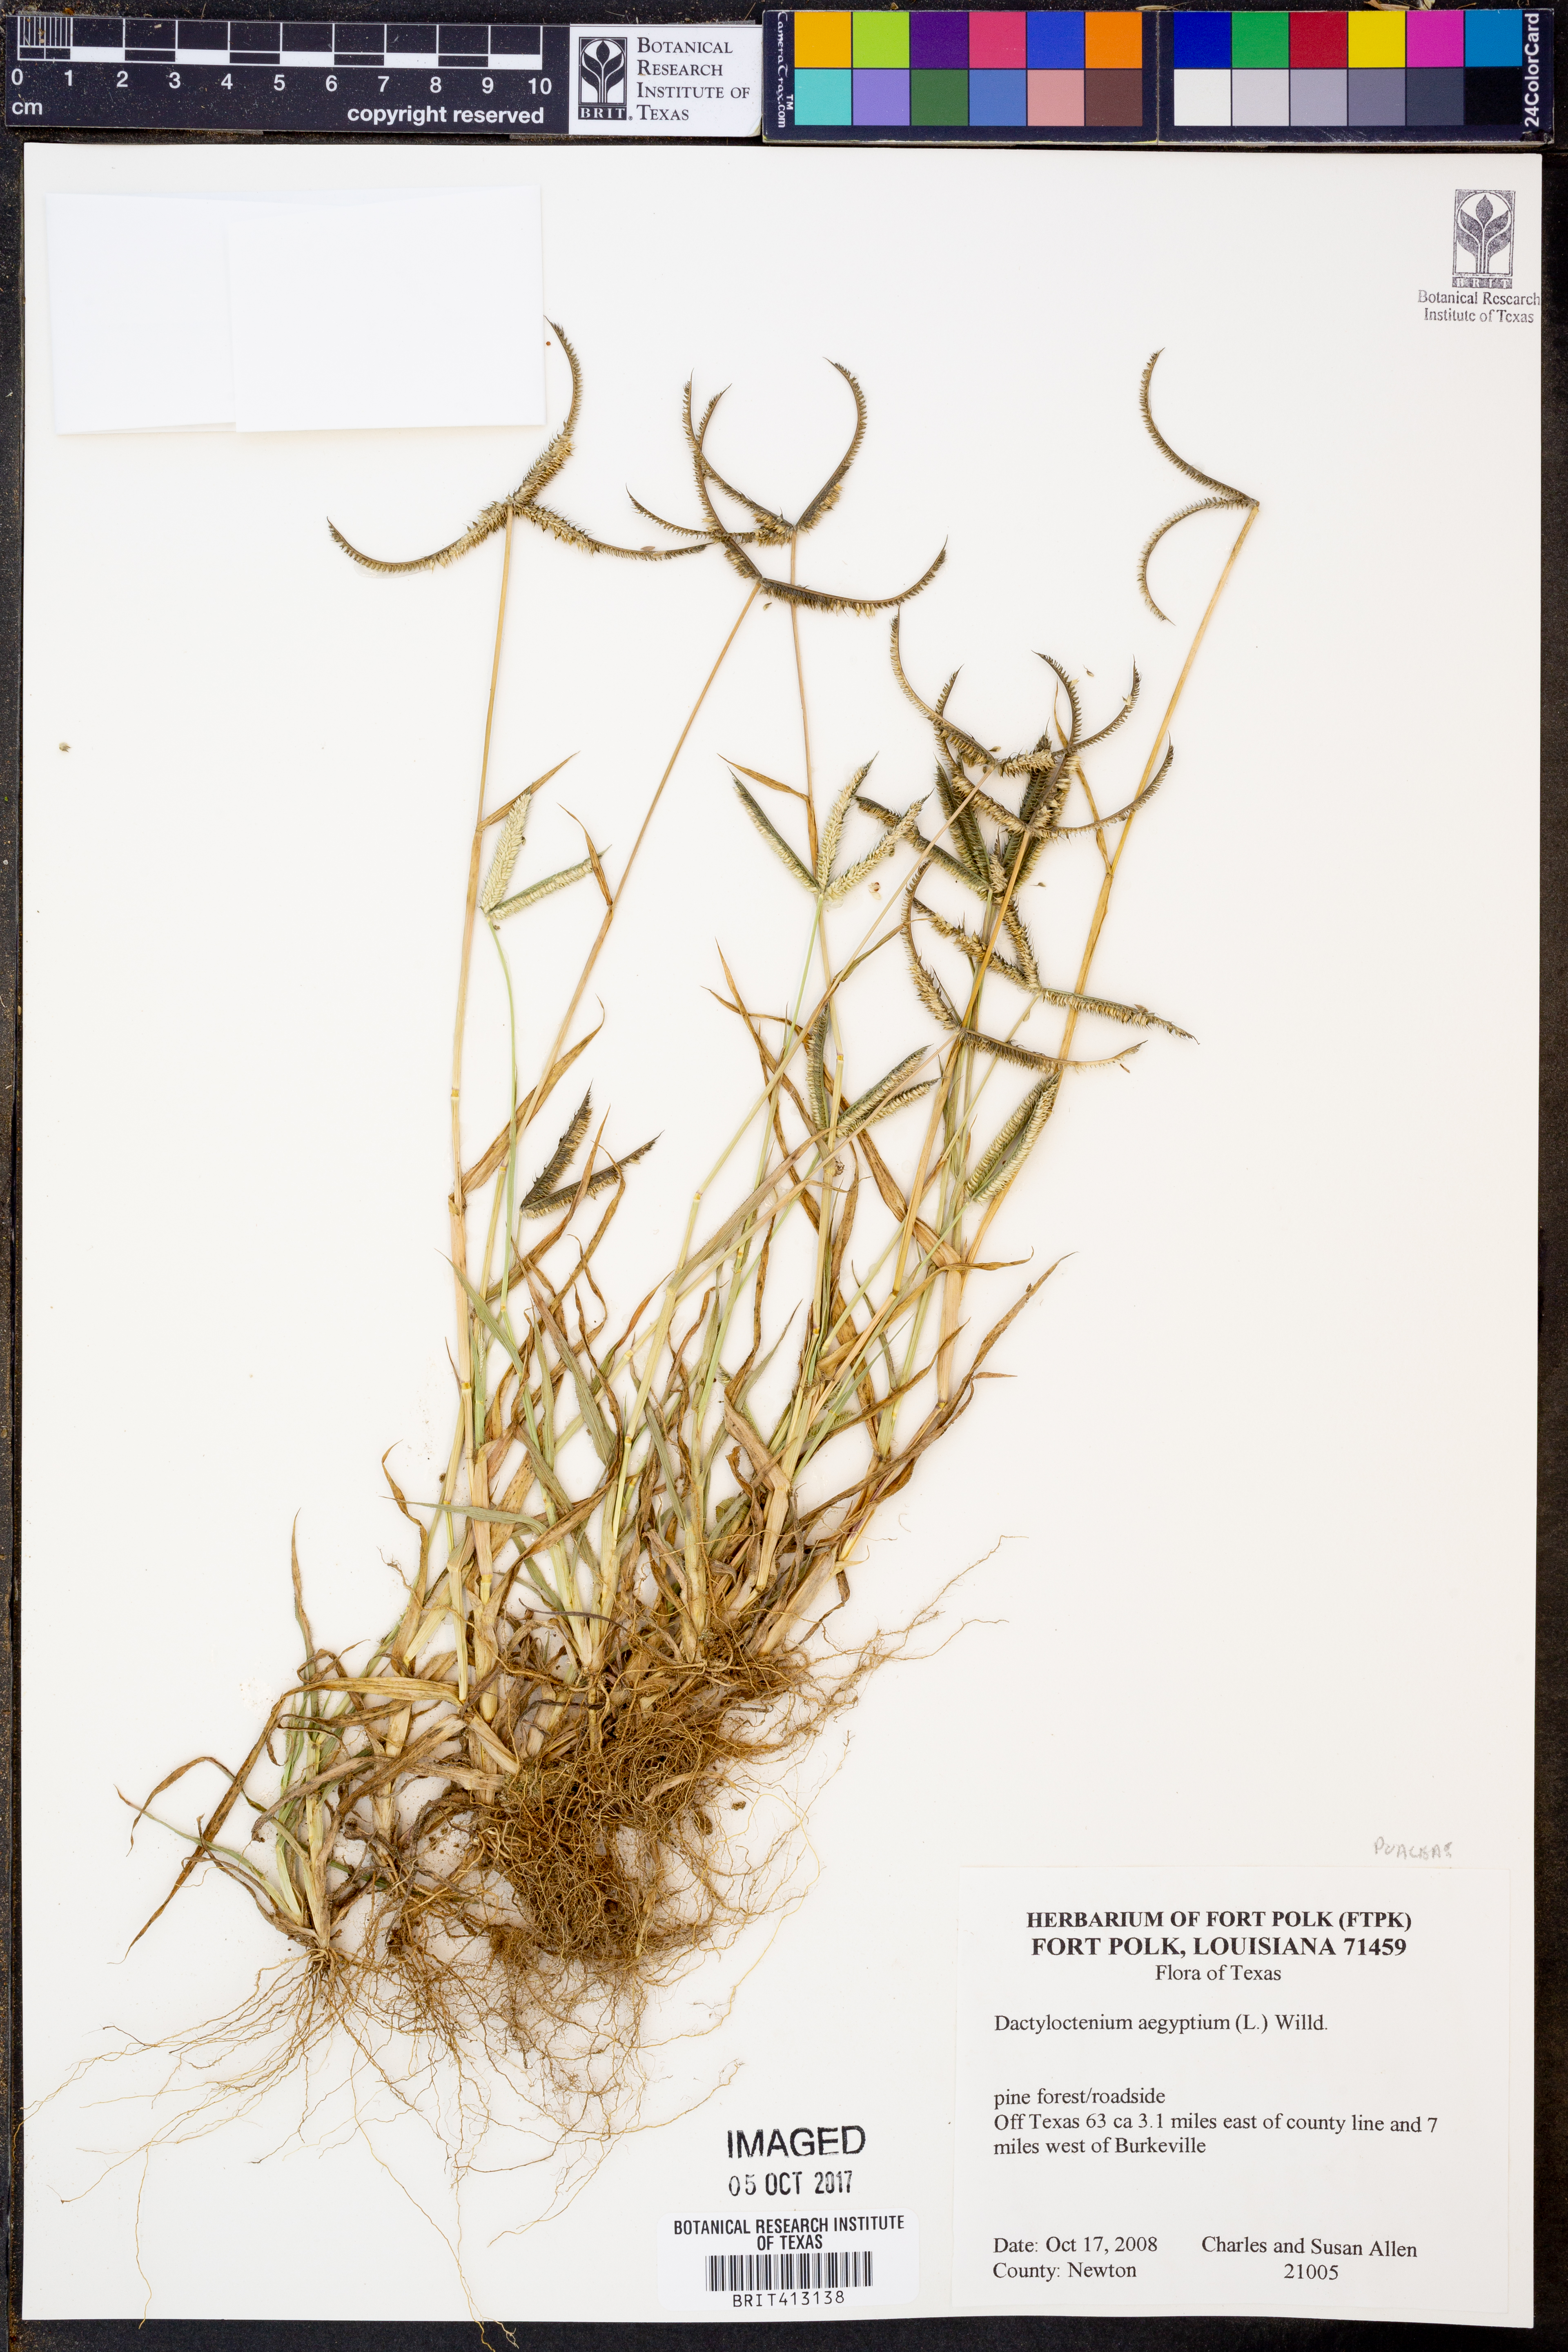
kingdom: Plantae
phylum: Tracheophyta
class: Liliopsida
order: Poales
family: Poaceae
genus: Dactyloctenium
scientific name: Dactyloctenium aegyptium
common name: Egyptian grass
